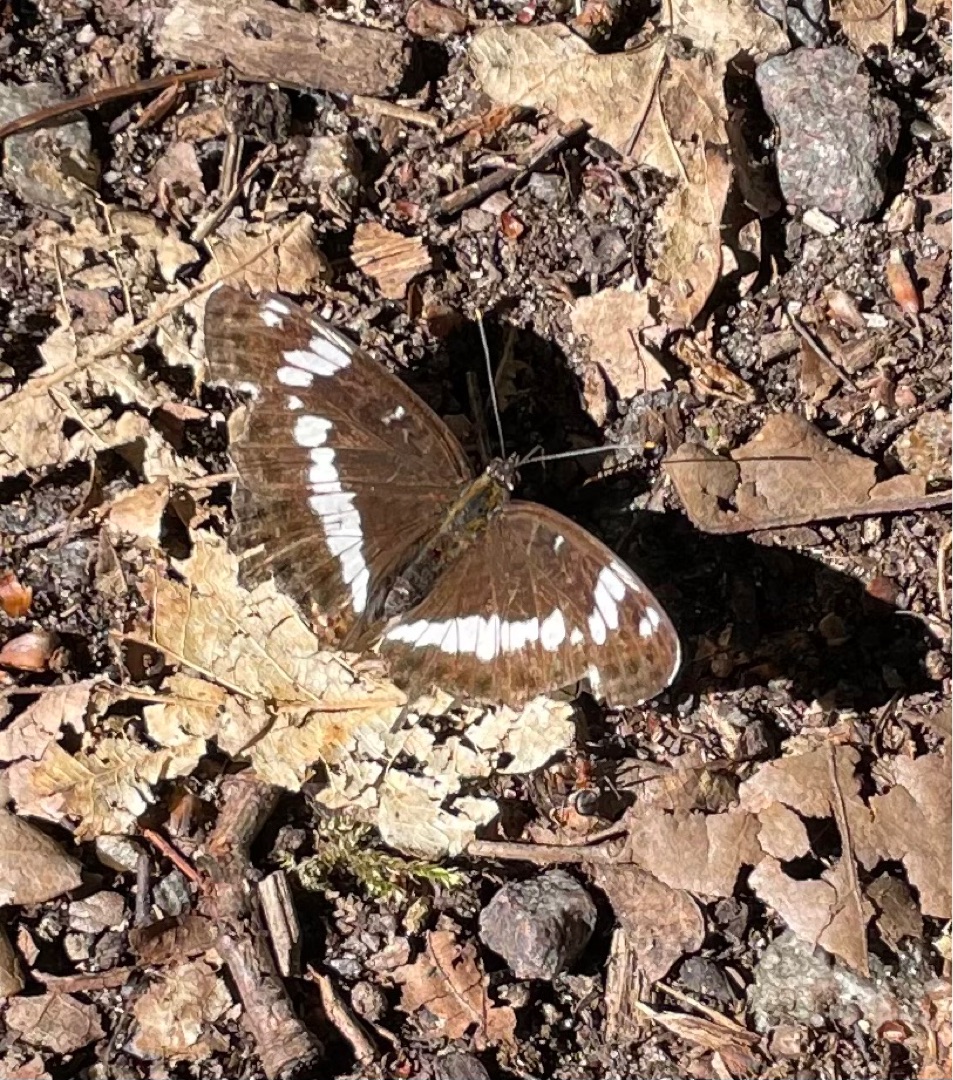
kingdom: Animalia
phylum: Arthropoda
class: Insecta
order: Lepidoptera
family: Nymphalidae
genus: Ladoga
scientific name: Ladoga camilla
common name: Hvid admiral
